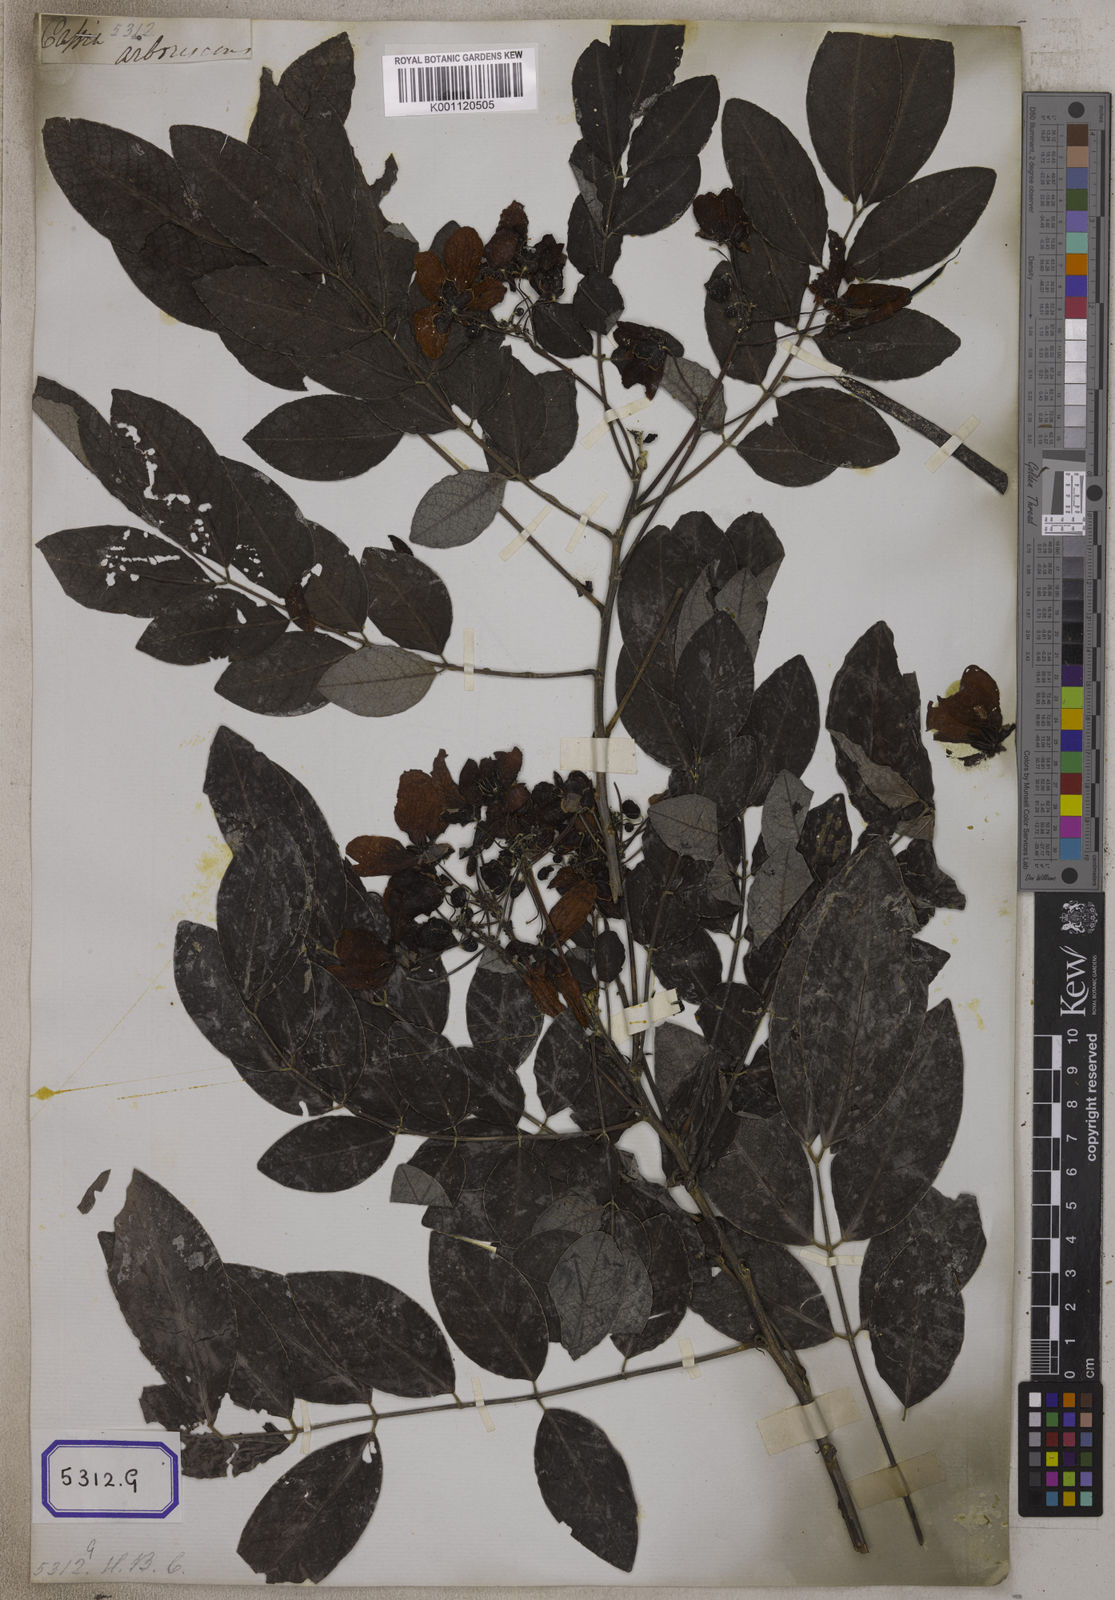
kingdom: Plantae
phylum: Tracheophyta
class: Magnoliopsida
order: Fabales
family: Fabaceae
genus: Senna
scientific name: Senna sulfurea
